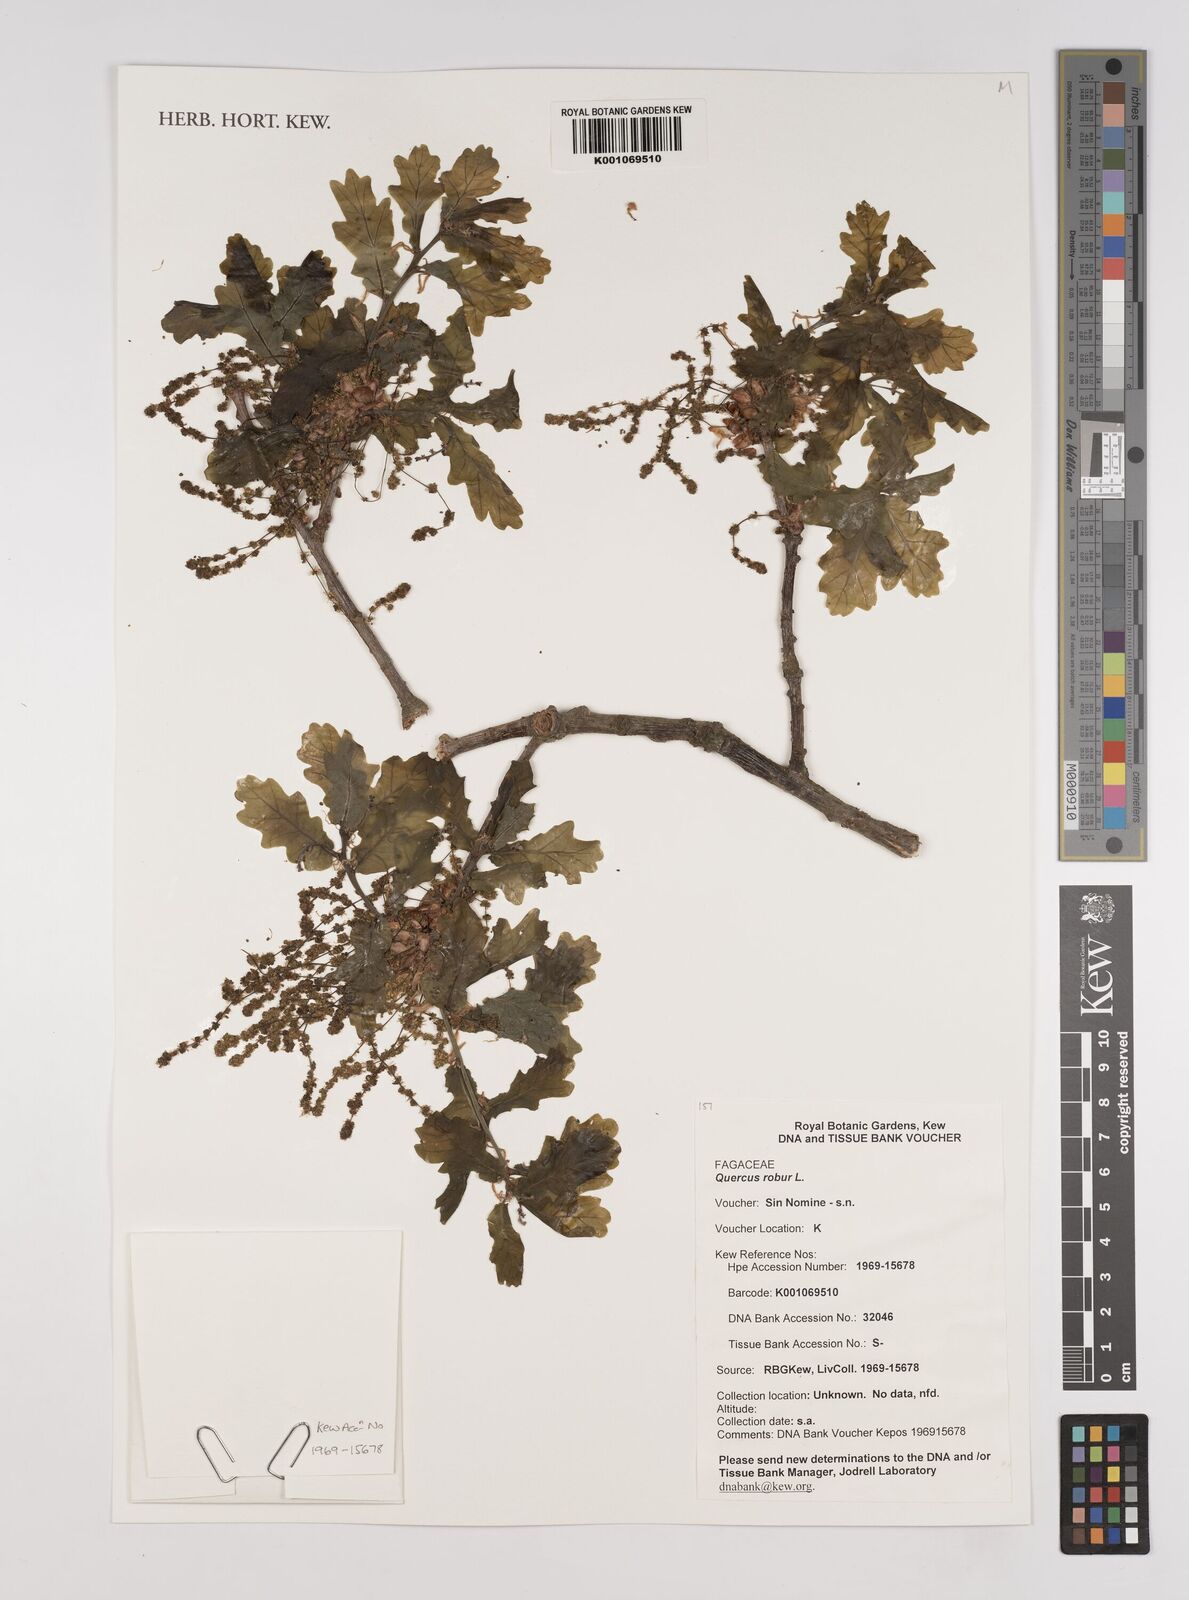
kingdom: Plantae
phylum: Tracheophyta
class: Magnoliopsida
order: Fagales
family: Fagaceae
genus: Quercus
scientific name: Quercus robur
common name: Pedunculate oak
